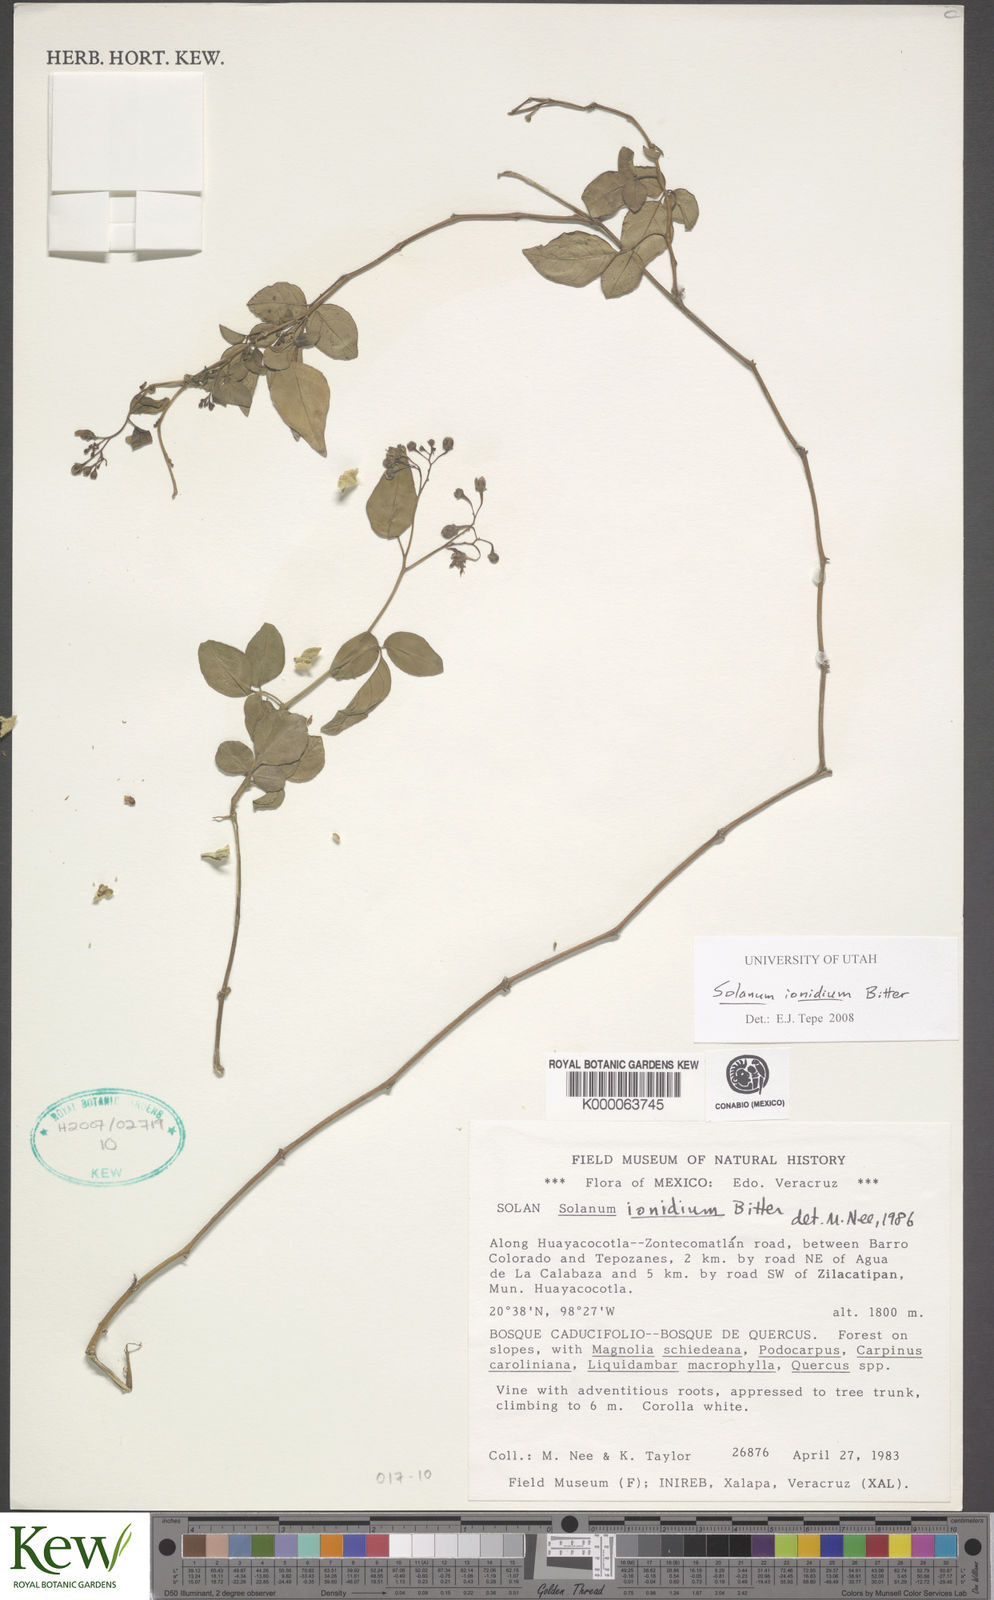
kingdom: Plantae
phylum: Tracheophyta
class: Magnoliopsida
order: Solanales
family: Solanaceae
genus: Solanum
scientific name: Solanum ionidium
